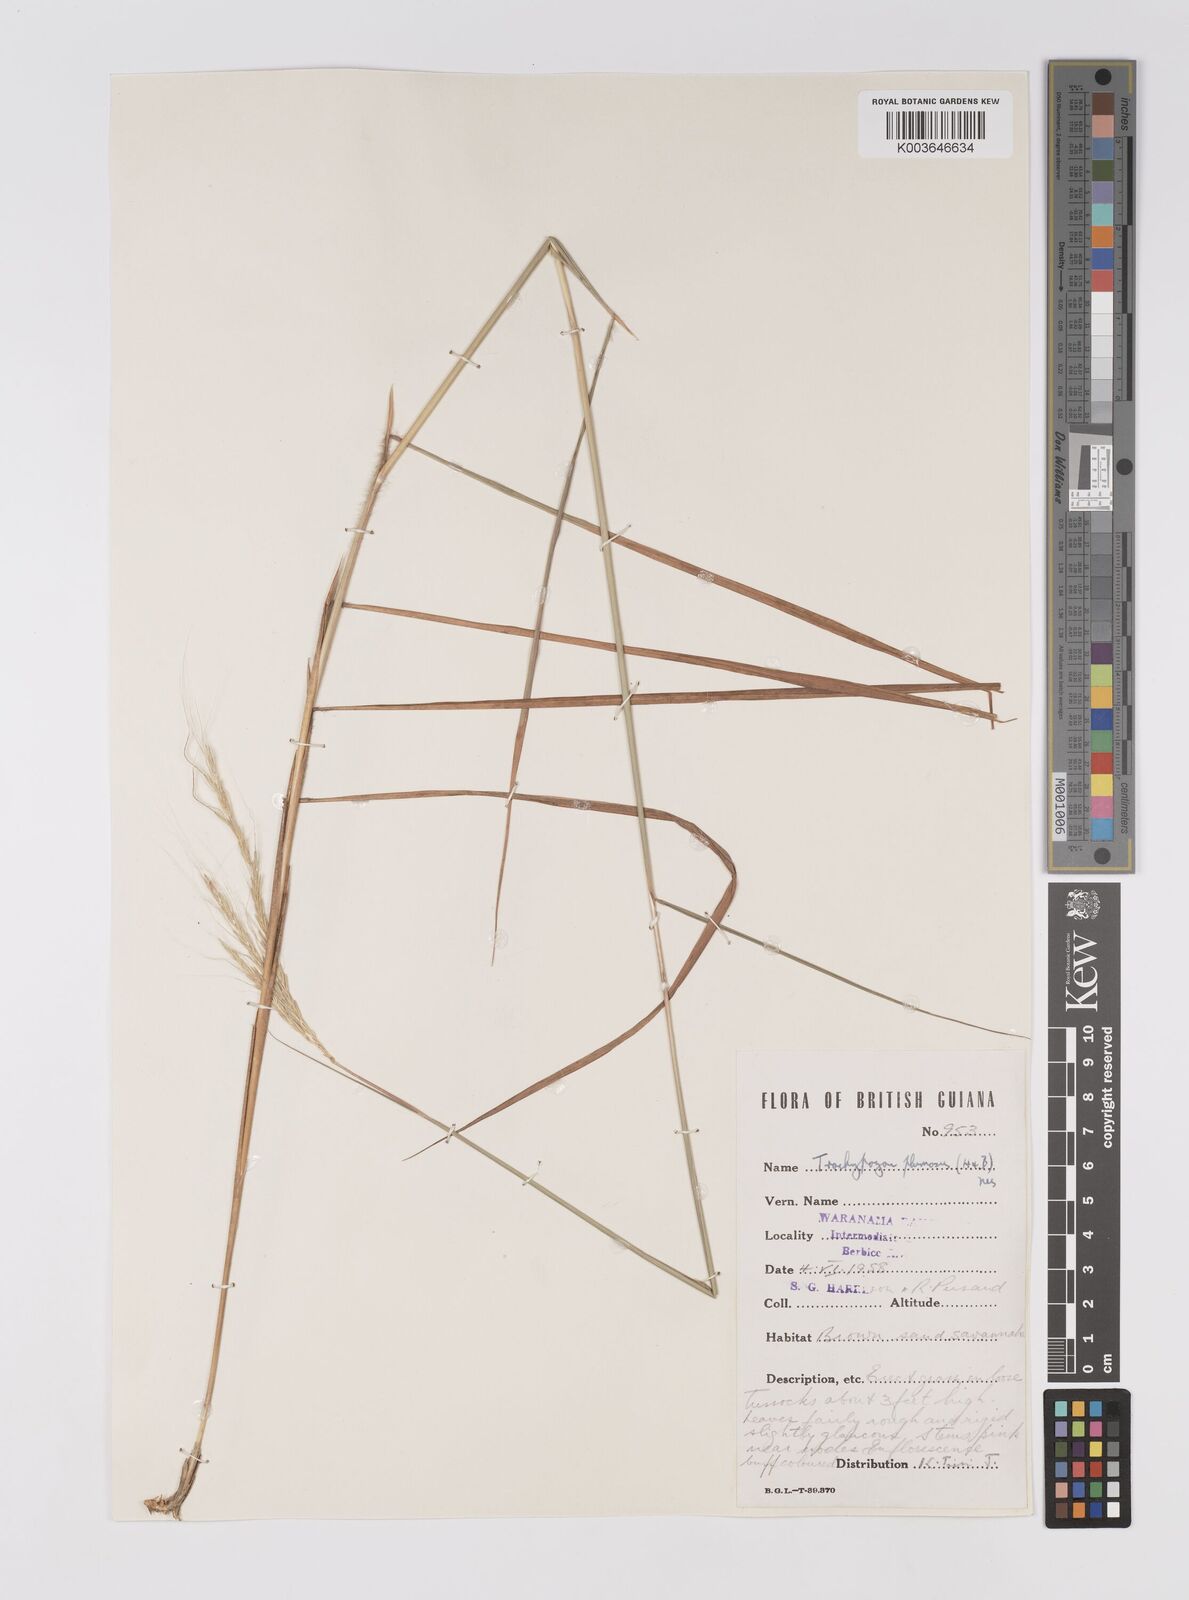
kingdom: Plantae
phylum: Tracheophyta
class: Liliopsida
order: Poales
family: Poaceae
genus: Trachypogon
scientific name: Trachypogon spicatus
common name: Crinkle-awn
